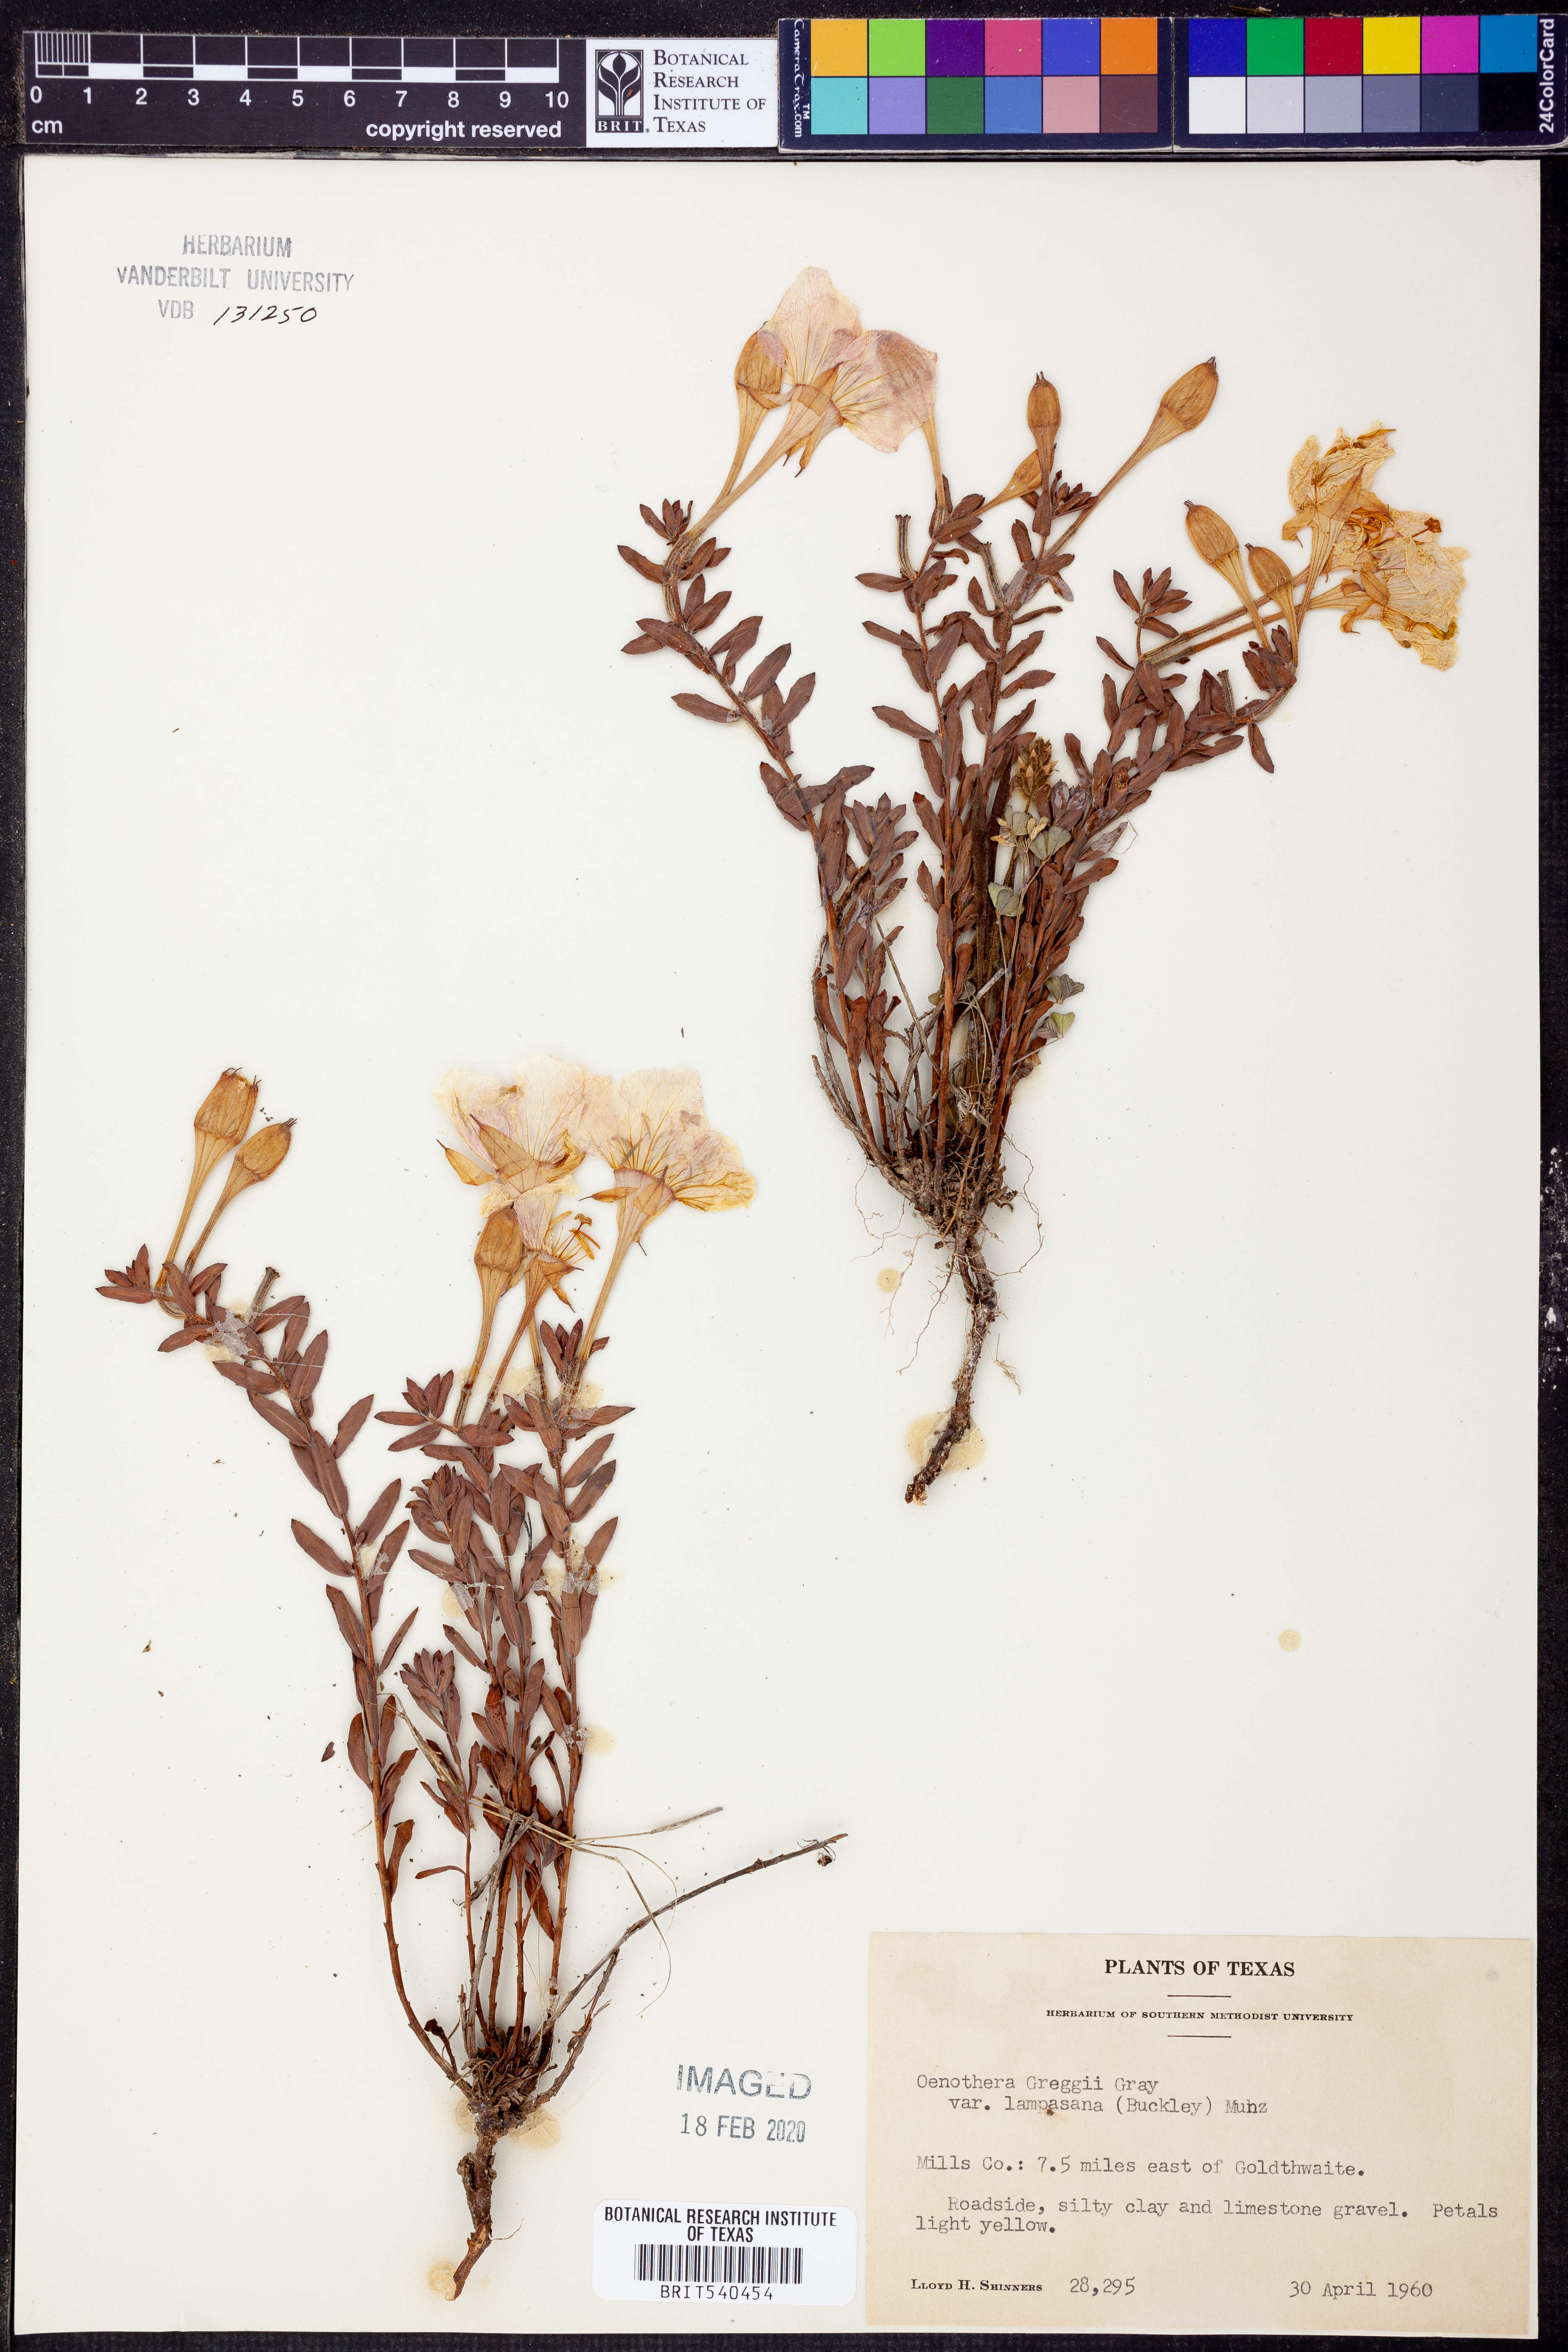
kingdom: Plantae
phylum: Tracheophyta
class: Magnoliopsida
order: Myrtales
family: Onagraceae
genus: Oenothera
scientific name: Oenothera hartwegii
